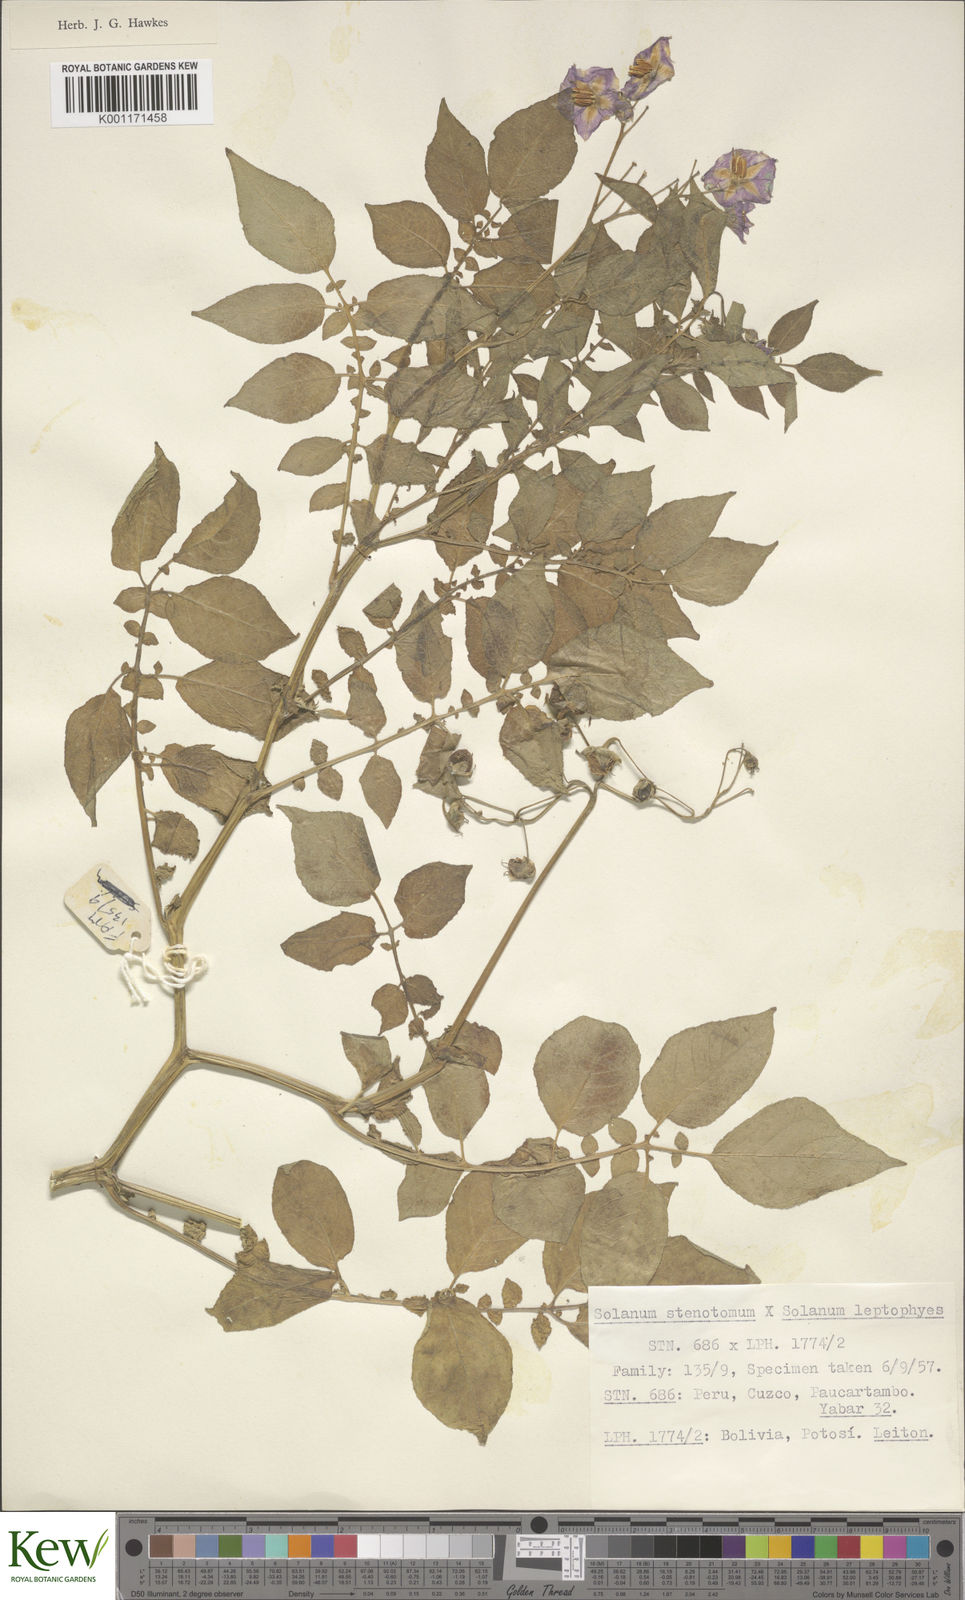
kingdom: Plantae
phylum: Tracheophyta
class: Magnoliopsida
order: Solanales
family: Solanaceae
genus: Solanum
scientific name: Solanum tuberosum
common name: Potato
